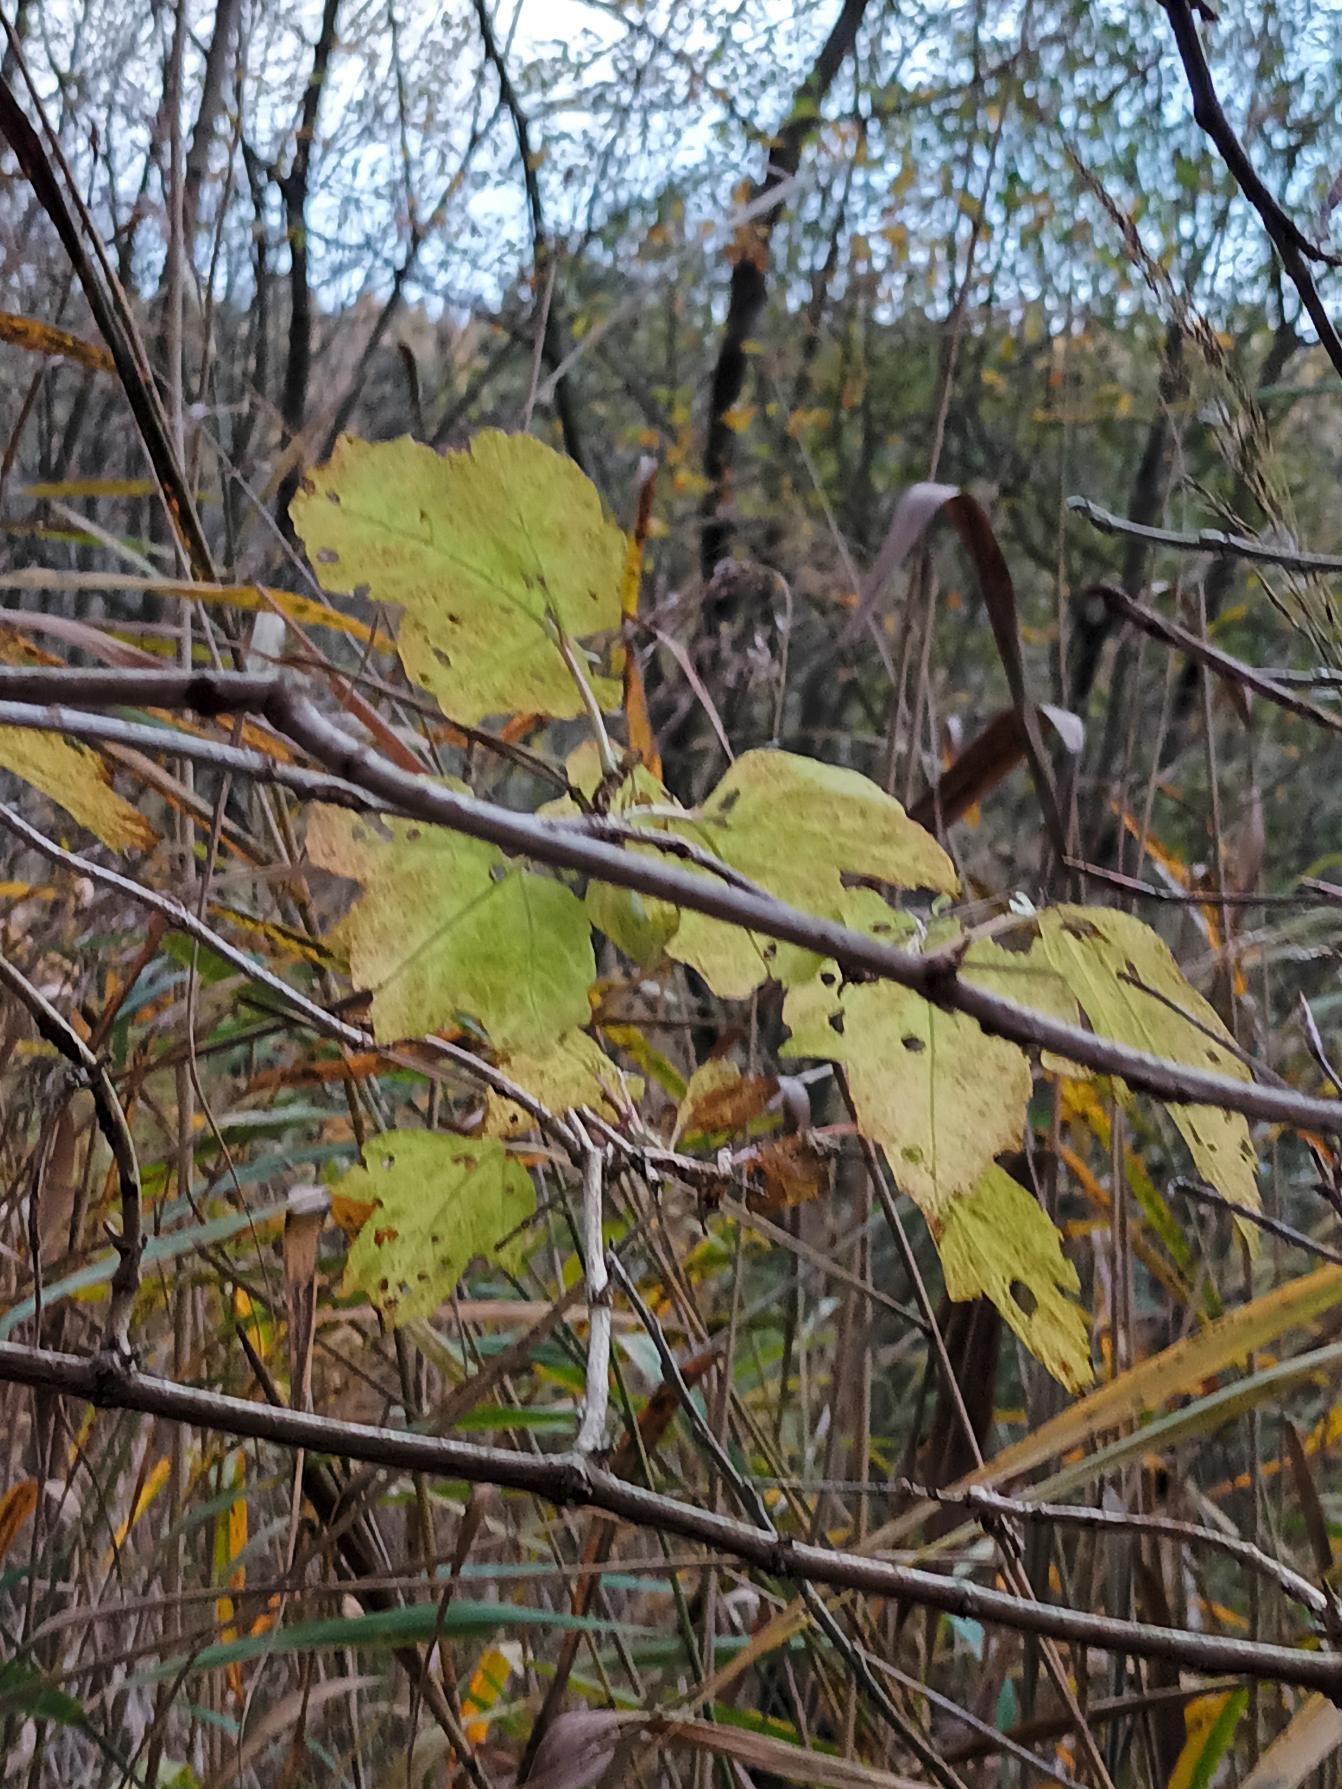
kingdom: Plantae
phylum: Tracheophyta
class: Magnoliopsida
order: Dipsacales
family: Viburnaceae
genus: Viburnum
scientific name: Viburnum opulus
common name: Kvalkved
